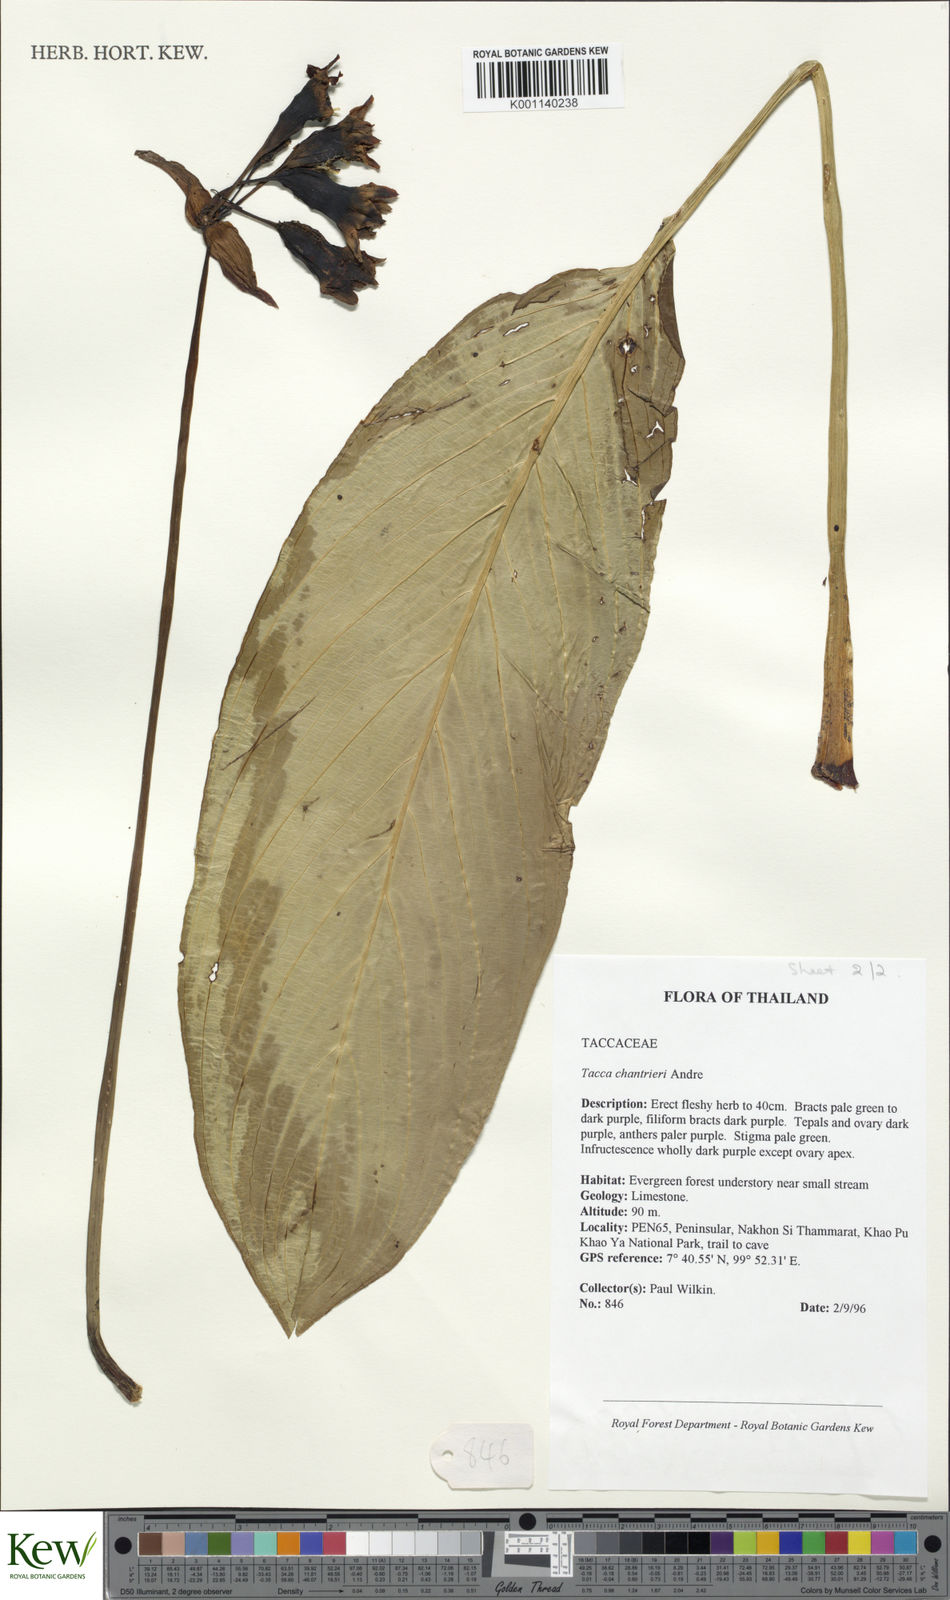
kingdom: Plantae
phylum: Tracheophyta
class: Liliopsida
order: Dioscoreales
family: Dioscoreaceae
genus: Tacca
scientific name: Tacca
